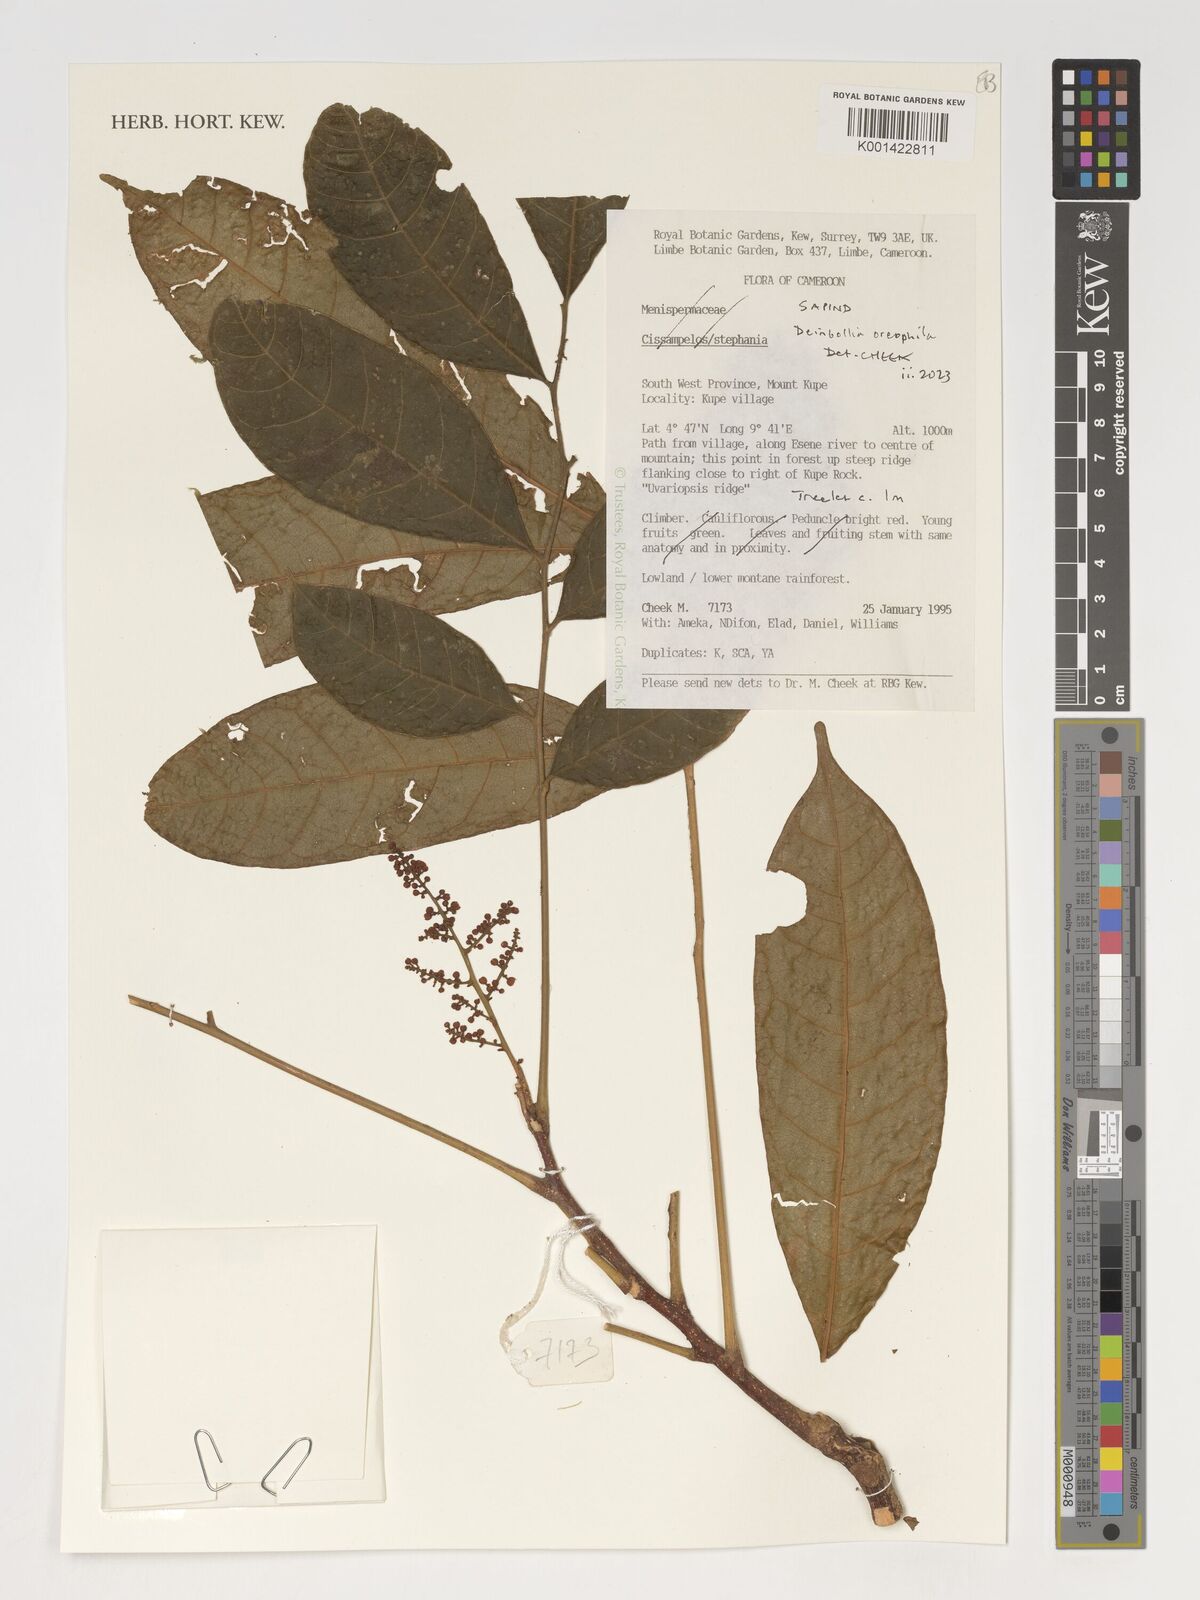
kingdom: Plantae
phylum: Tracheophyta
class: Magnoliopsida
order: Sapindales
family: Sapindaceae
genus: Deinbollia
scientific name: Deinbollia oreophila
